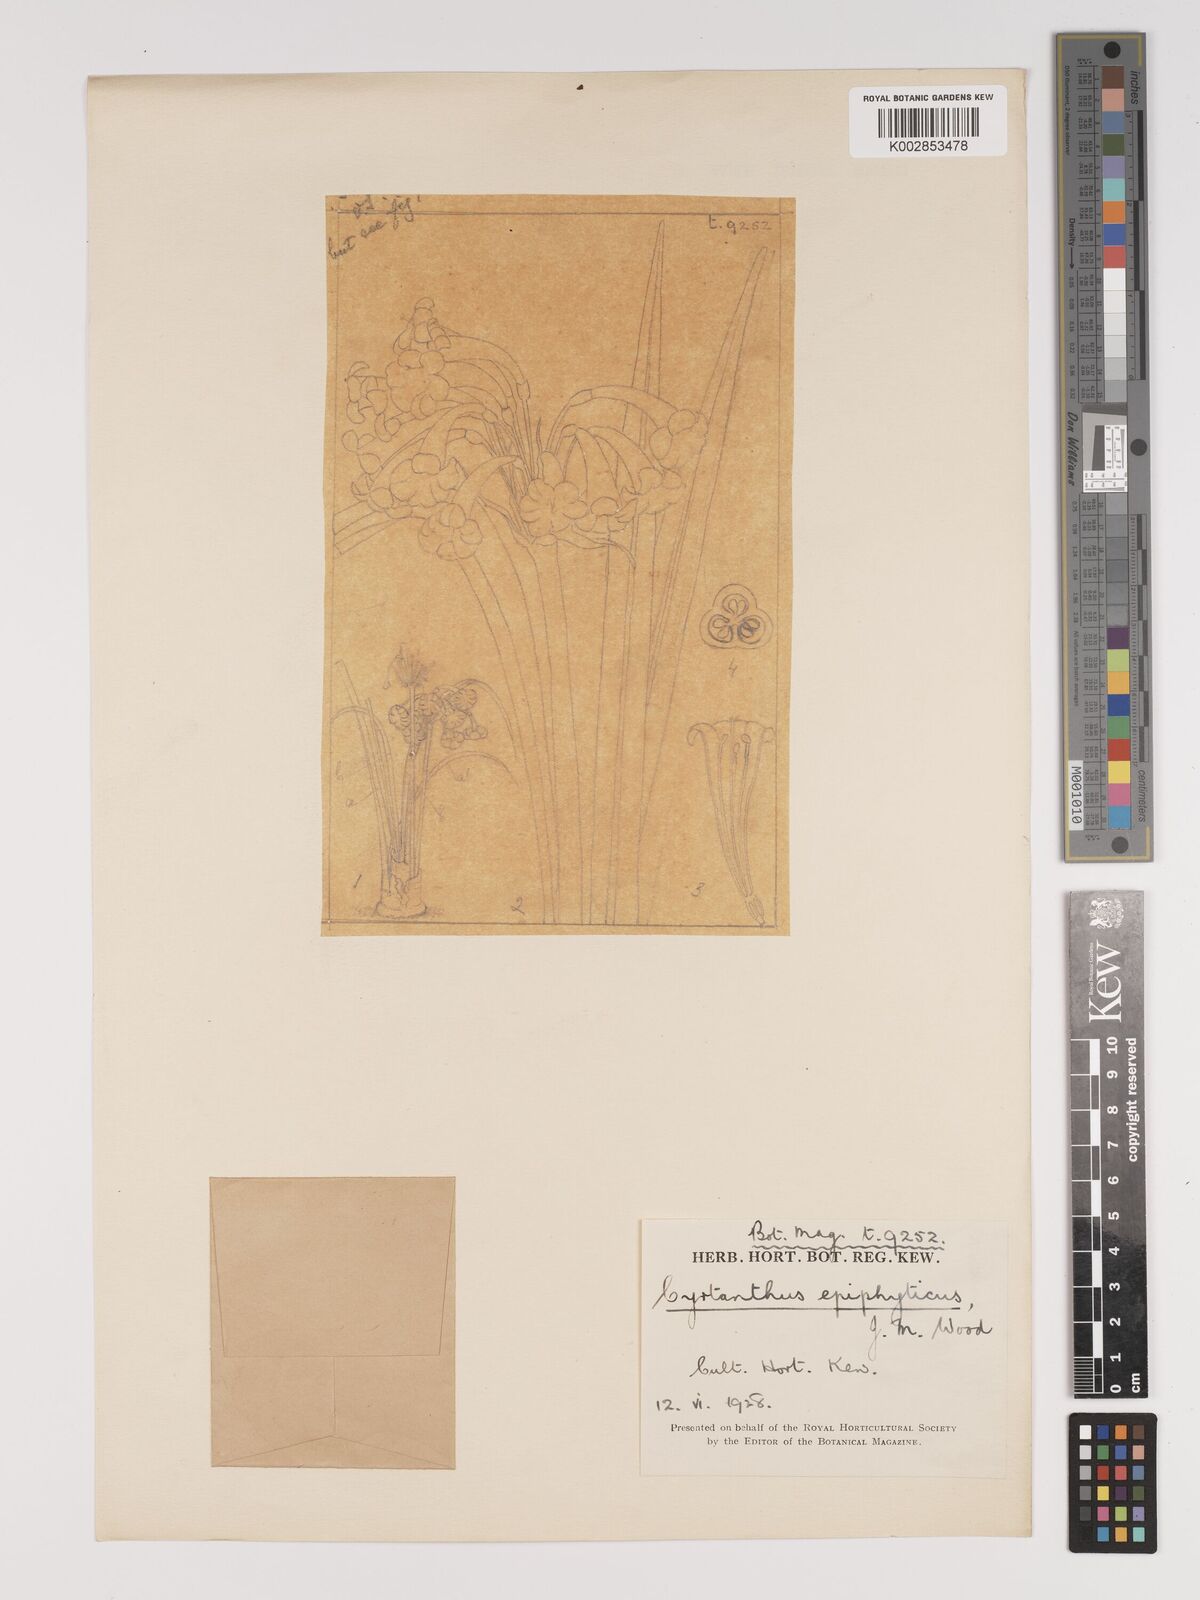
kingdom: Plantae
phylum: Tracheophyta
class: Liliopsida
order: Asparagales
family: Amaryllidaceae
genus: Cyrtanthus
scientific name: Cyrtanthus epiphyticus
